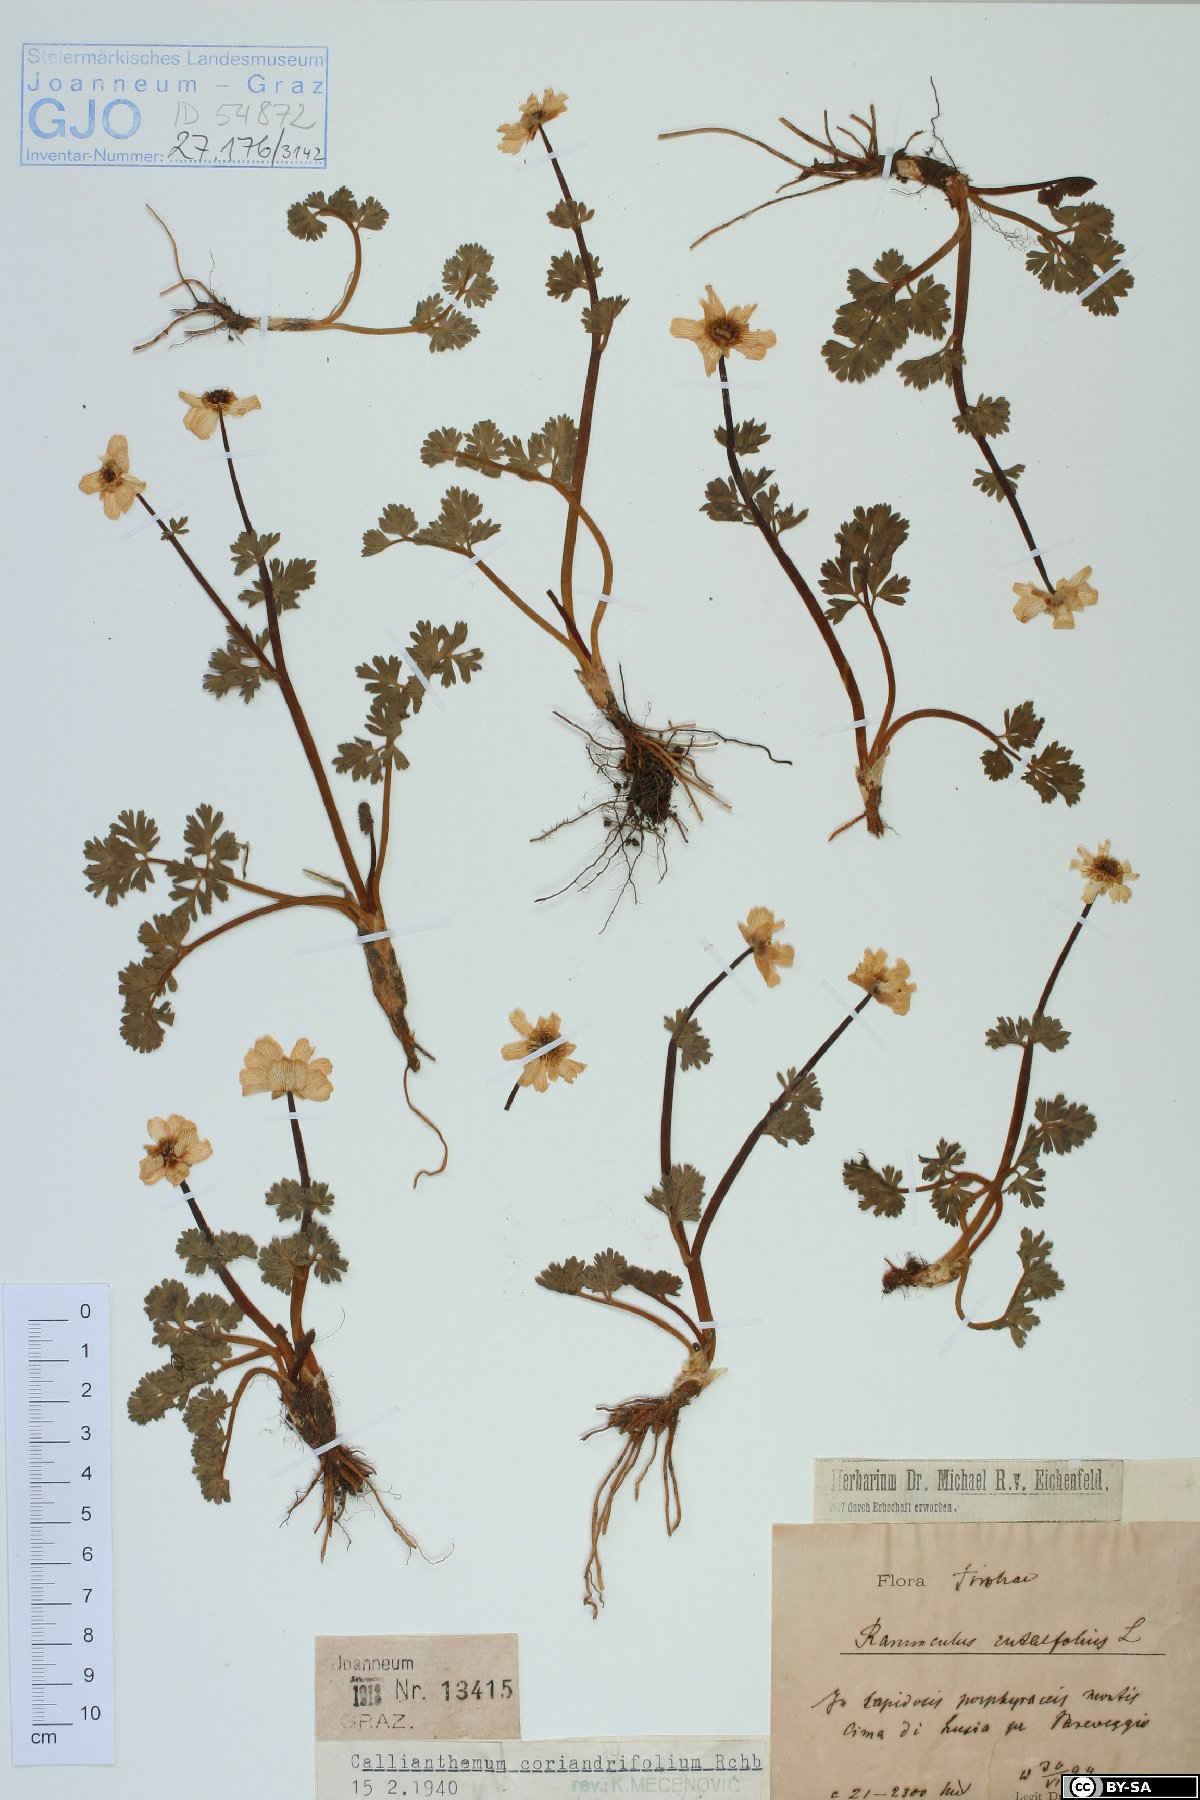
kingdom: Plantae
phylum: Tracheophyta
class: Magnoliopsida
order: Ranunculales
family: Ranunculaceae
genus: Callianthemum
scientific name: Callianthemum coriandrifolium
